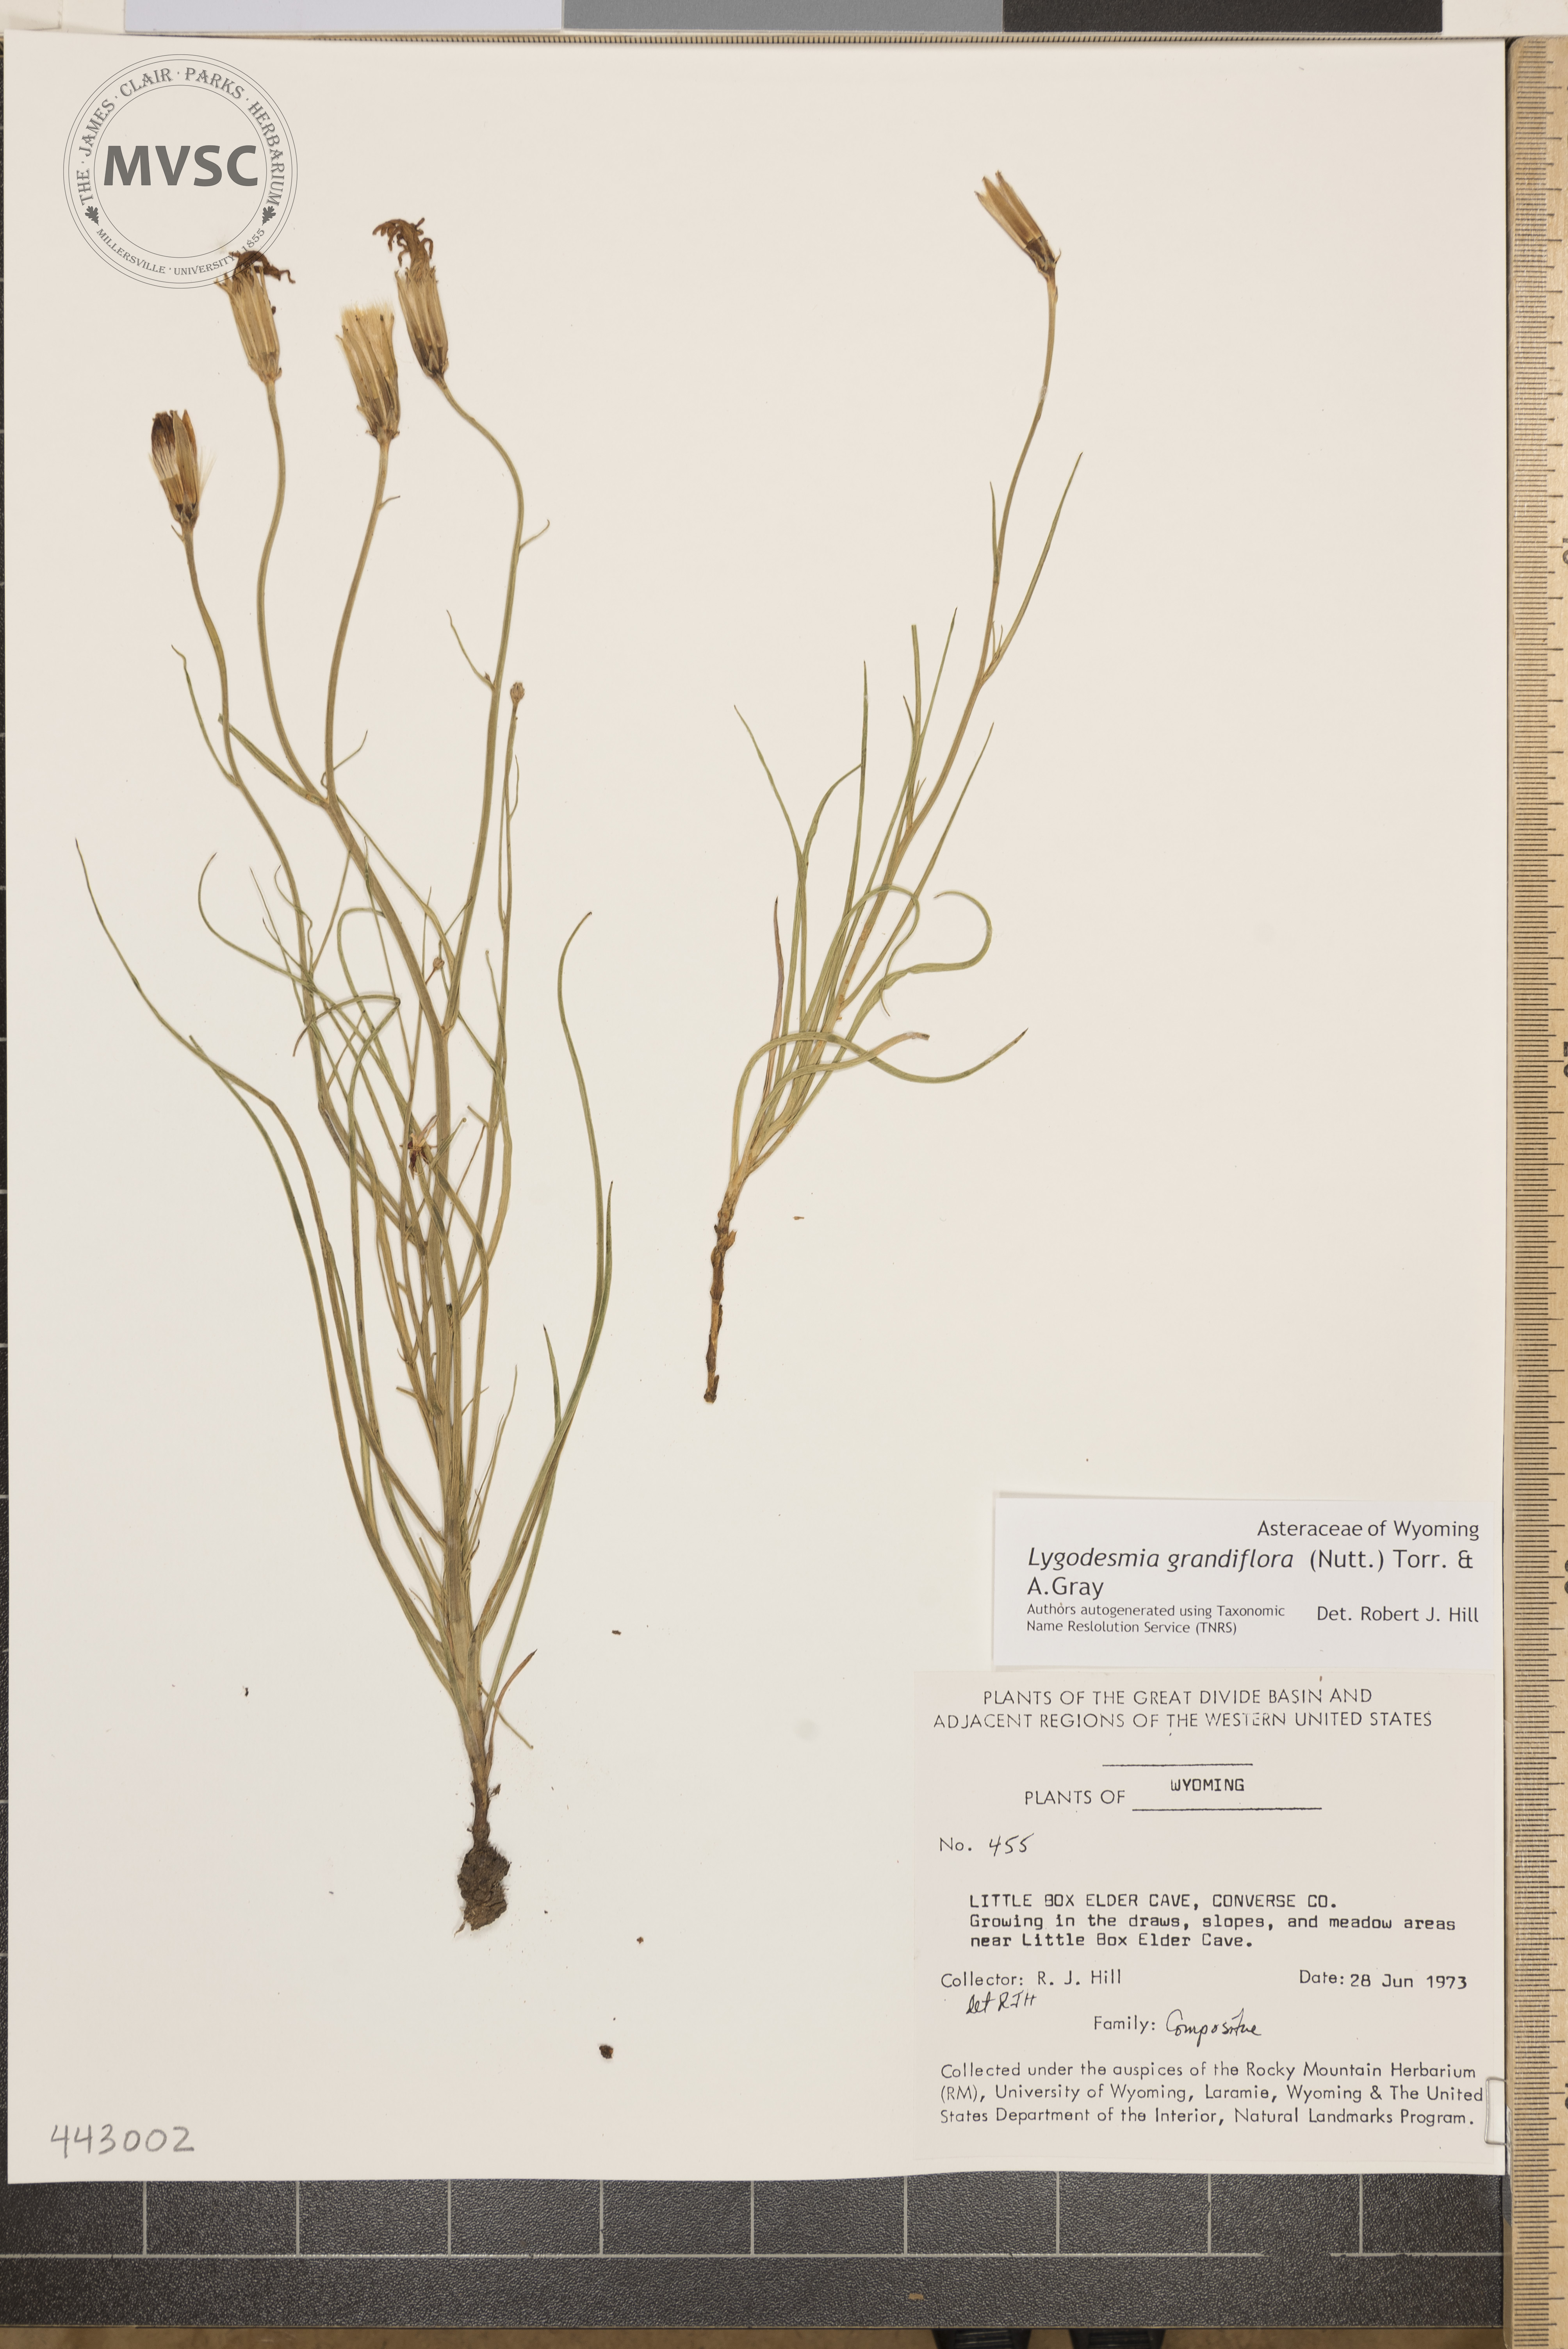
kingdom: Plantae
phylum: Tracheophyta
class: Magnoliopsida
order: Asterales
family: Asteraceae
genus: Lygodesmia
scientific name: Lygodesmia grandiflora
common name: Showy rush-pink
